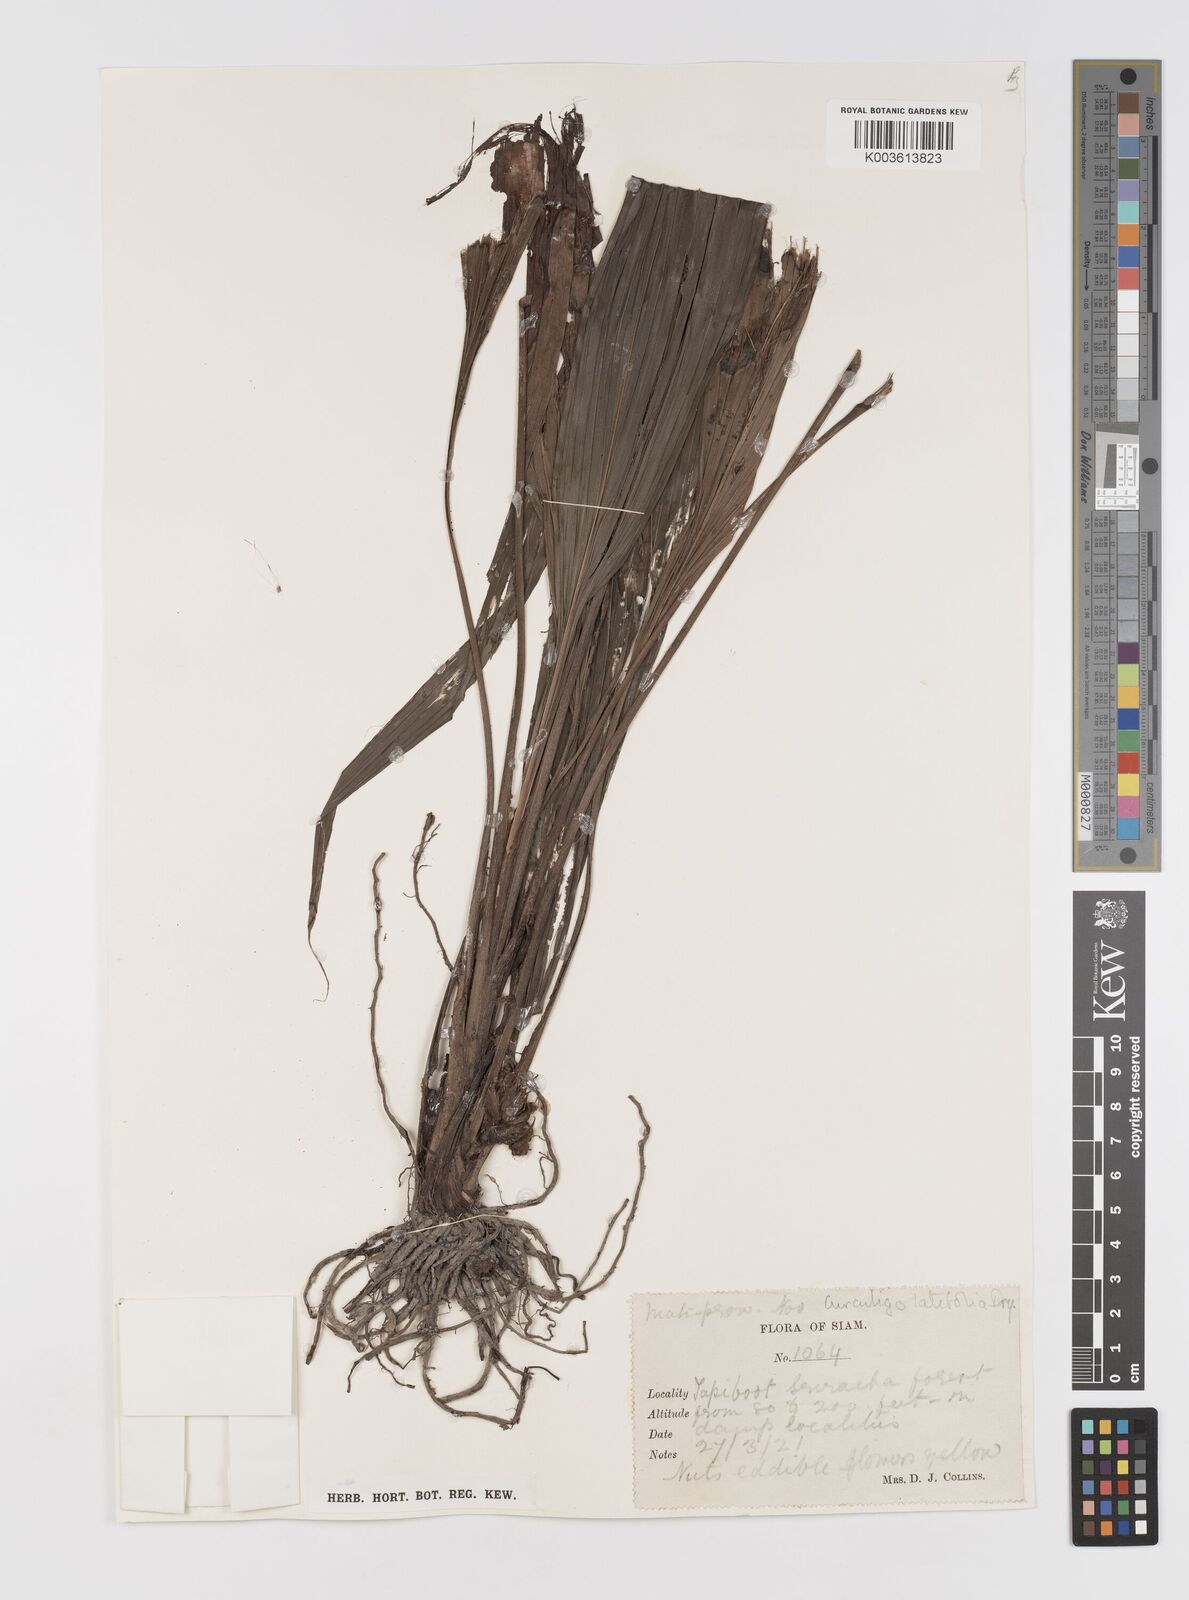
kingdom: Plantae
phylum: Tracheophyta
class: Liliopsida
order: Asparagales
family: Hypoxidaceae
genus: Curculigo
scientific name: Curculigo latifolia
